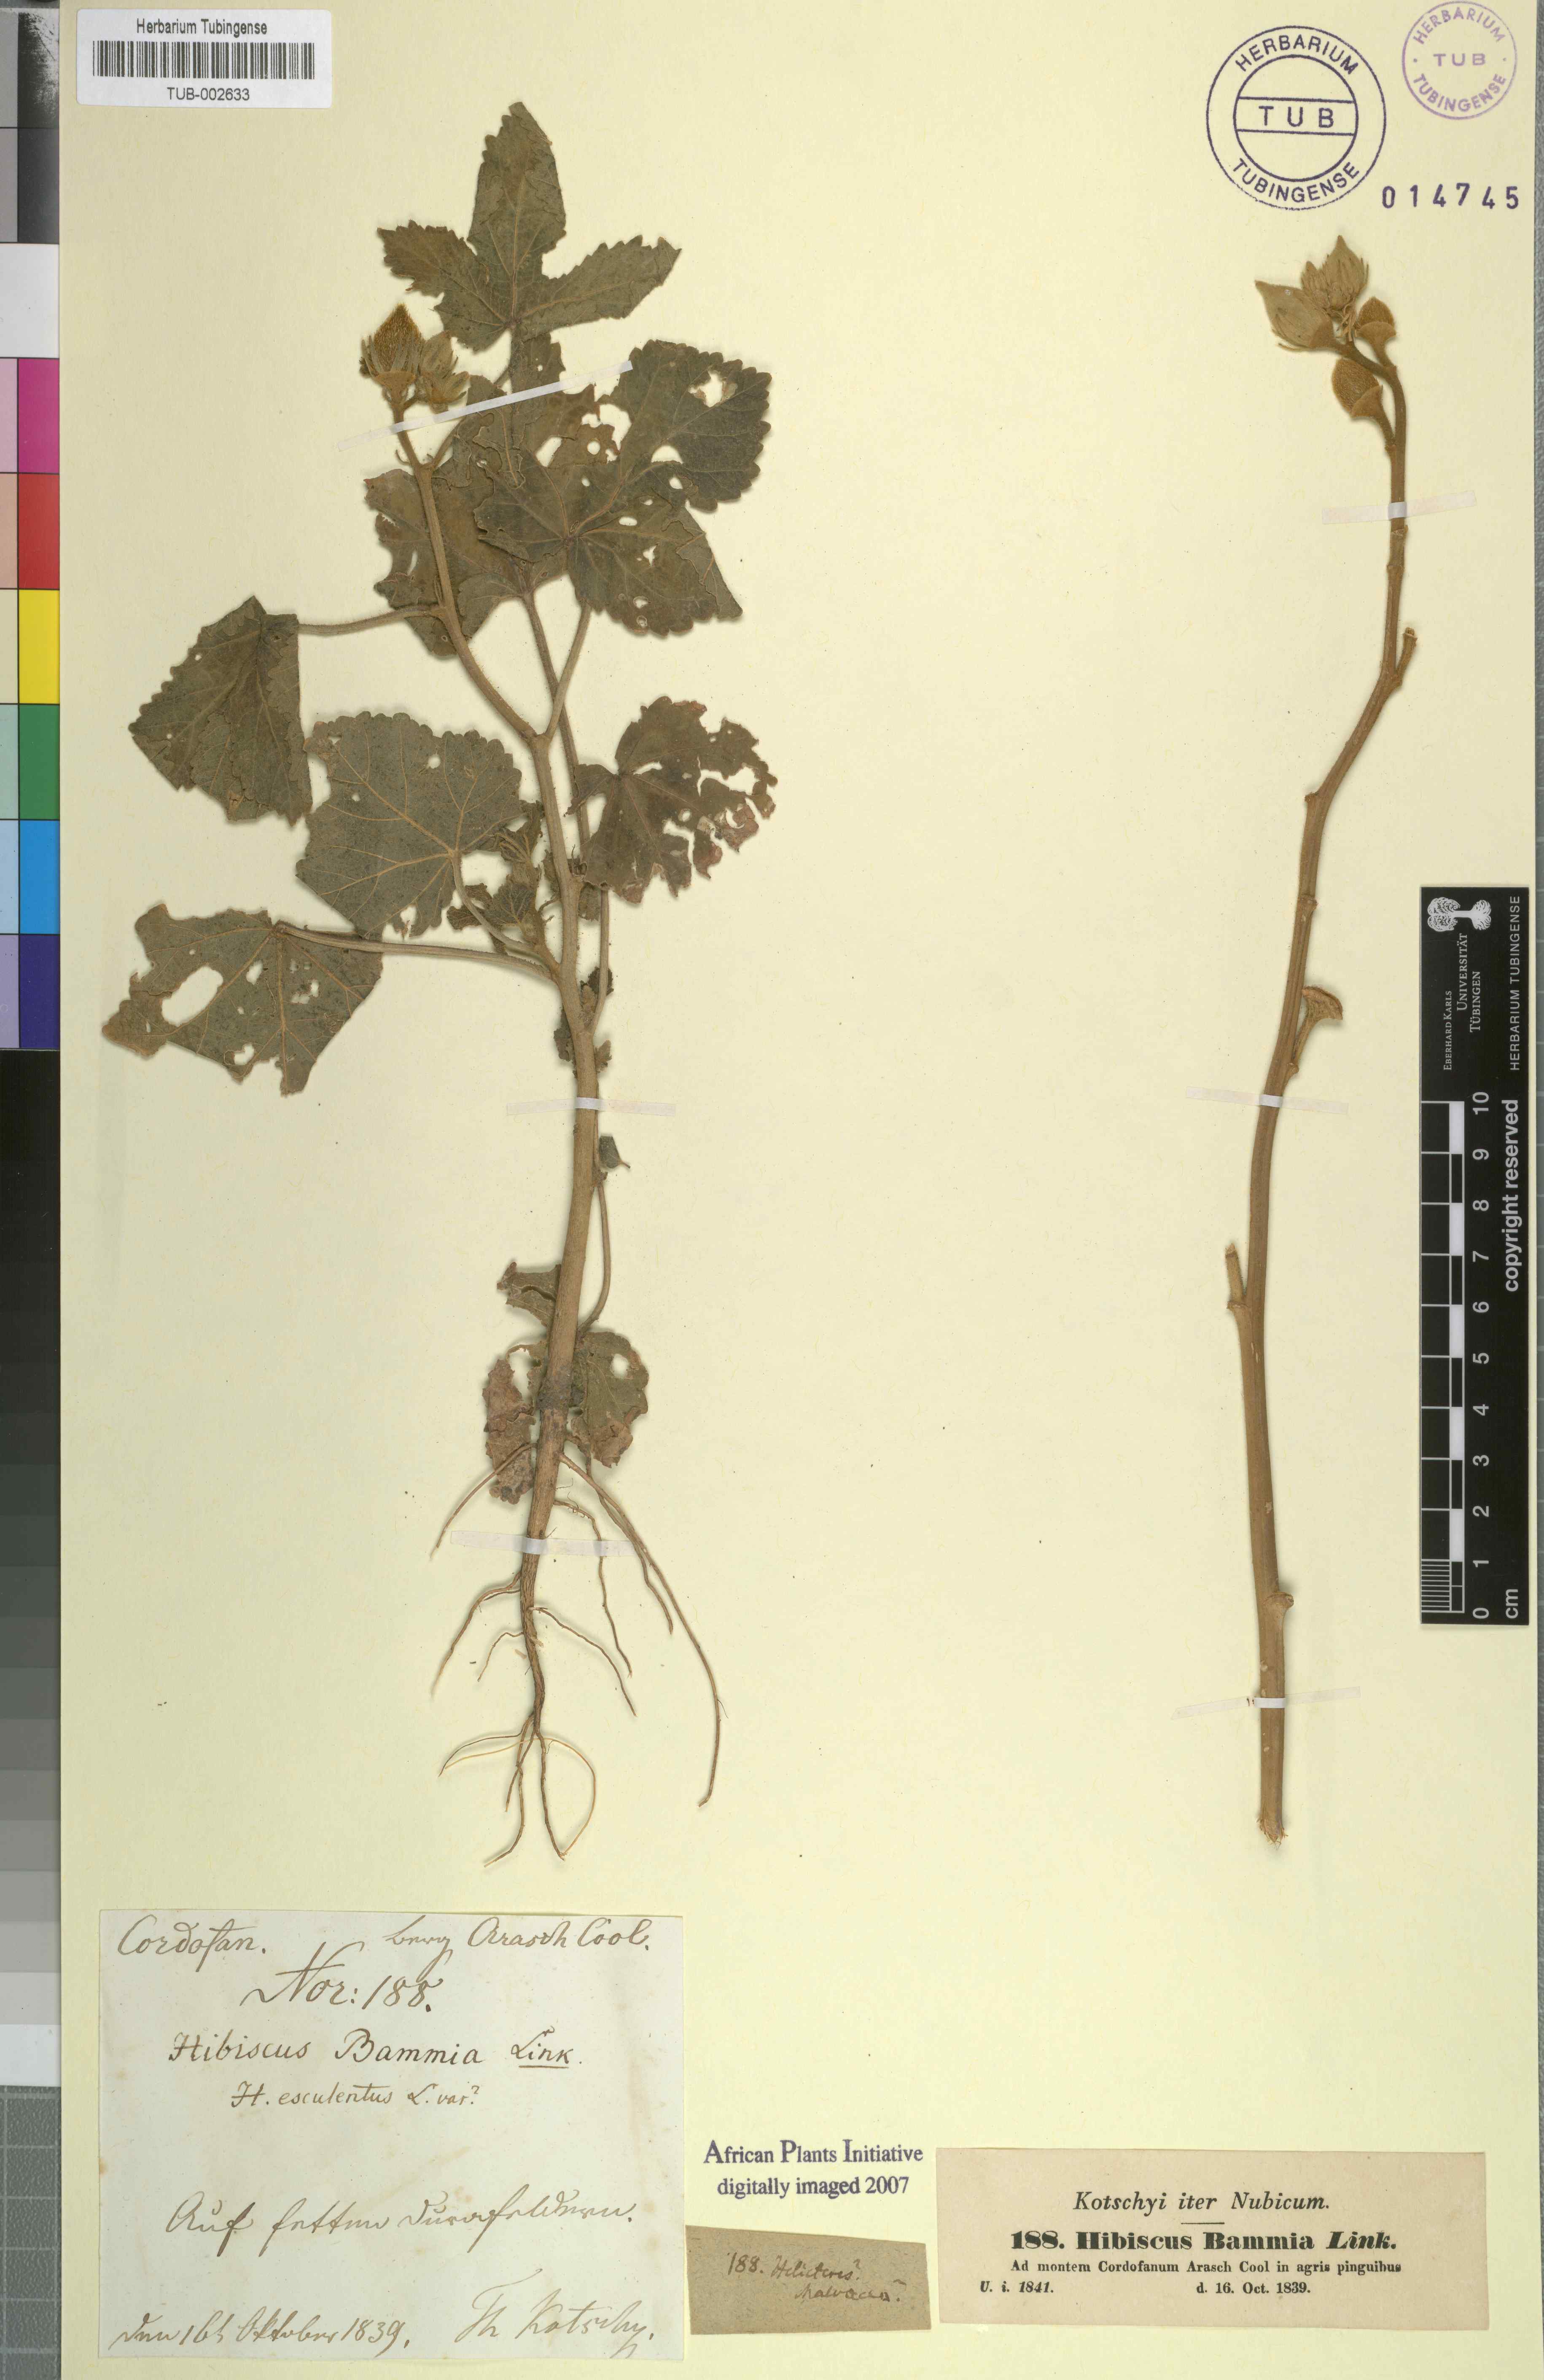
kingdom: Plantae
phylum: Tracheophyta
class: Magnoliopsida
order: Malvales
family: Malvaceae
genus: Abelmoschus
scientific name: Abelmoschus esculentus
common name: Okra
